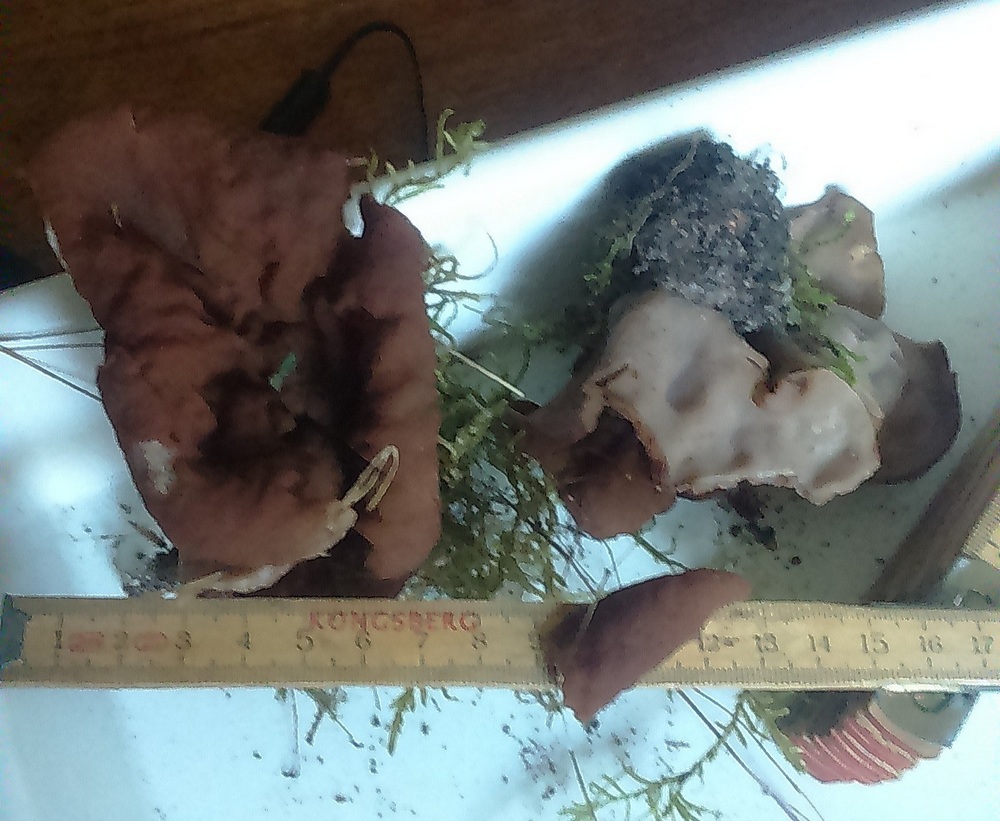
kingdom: Fungi
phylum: Ascomycota
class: Pezizomycetes
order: Pezizales
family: Discinaceae
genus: Discina
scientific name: Discina ancilis
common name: udbredt stenmorkel
